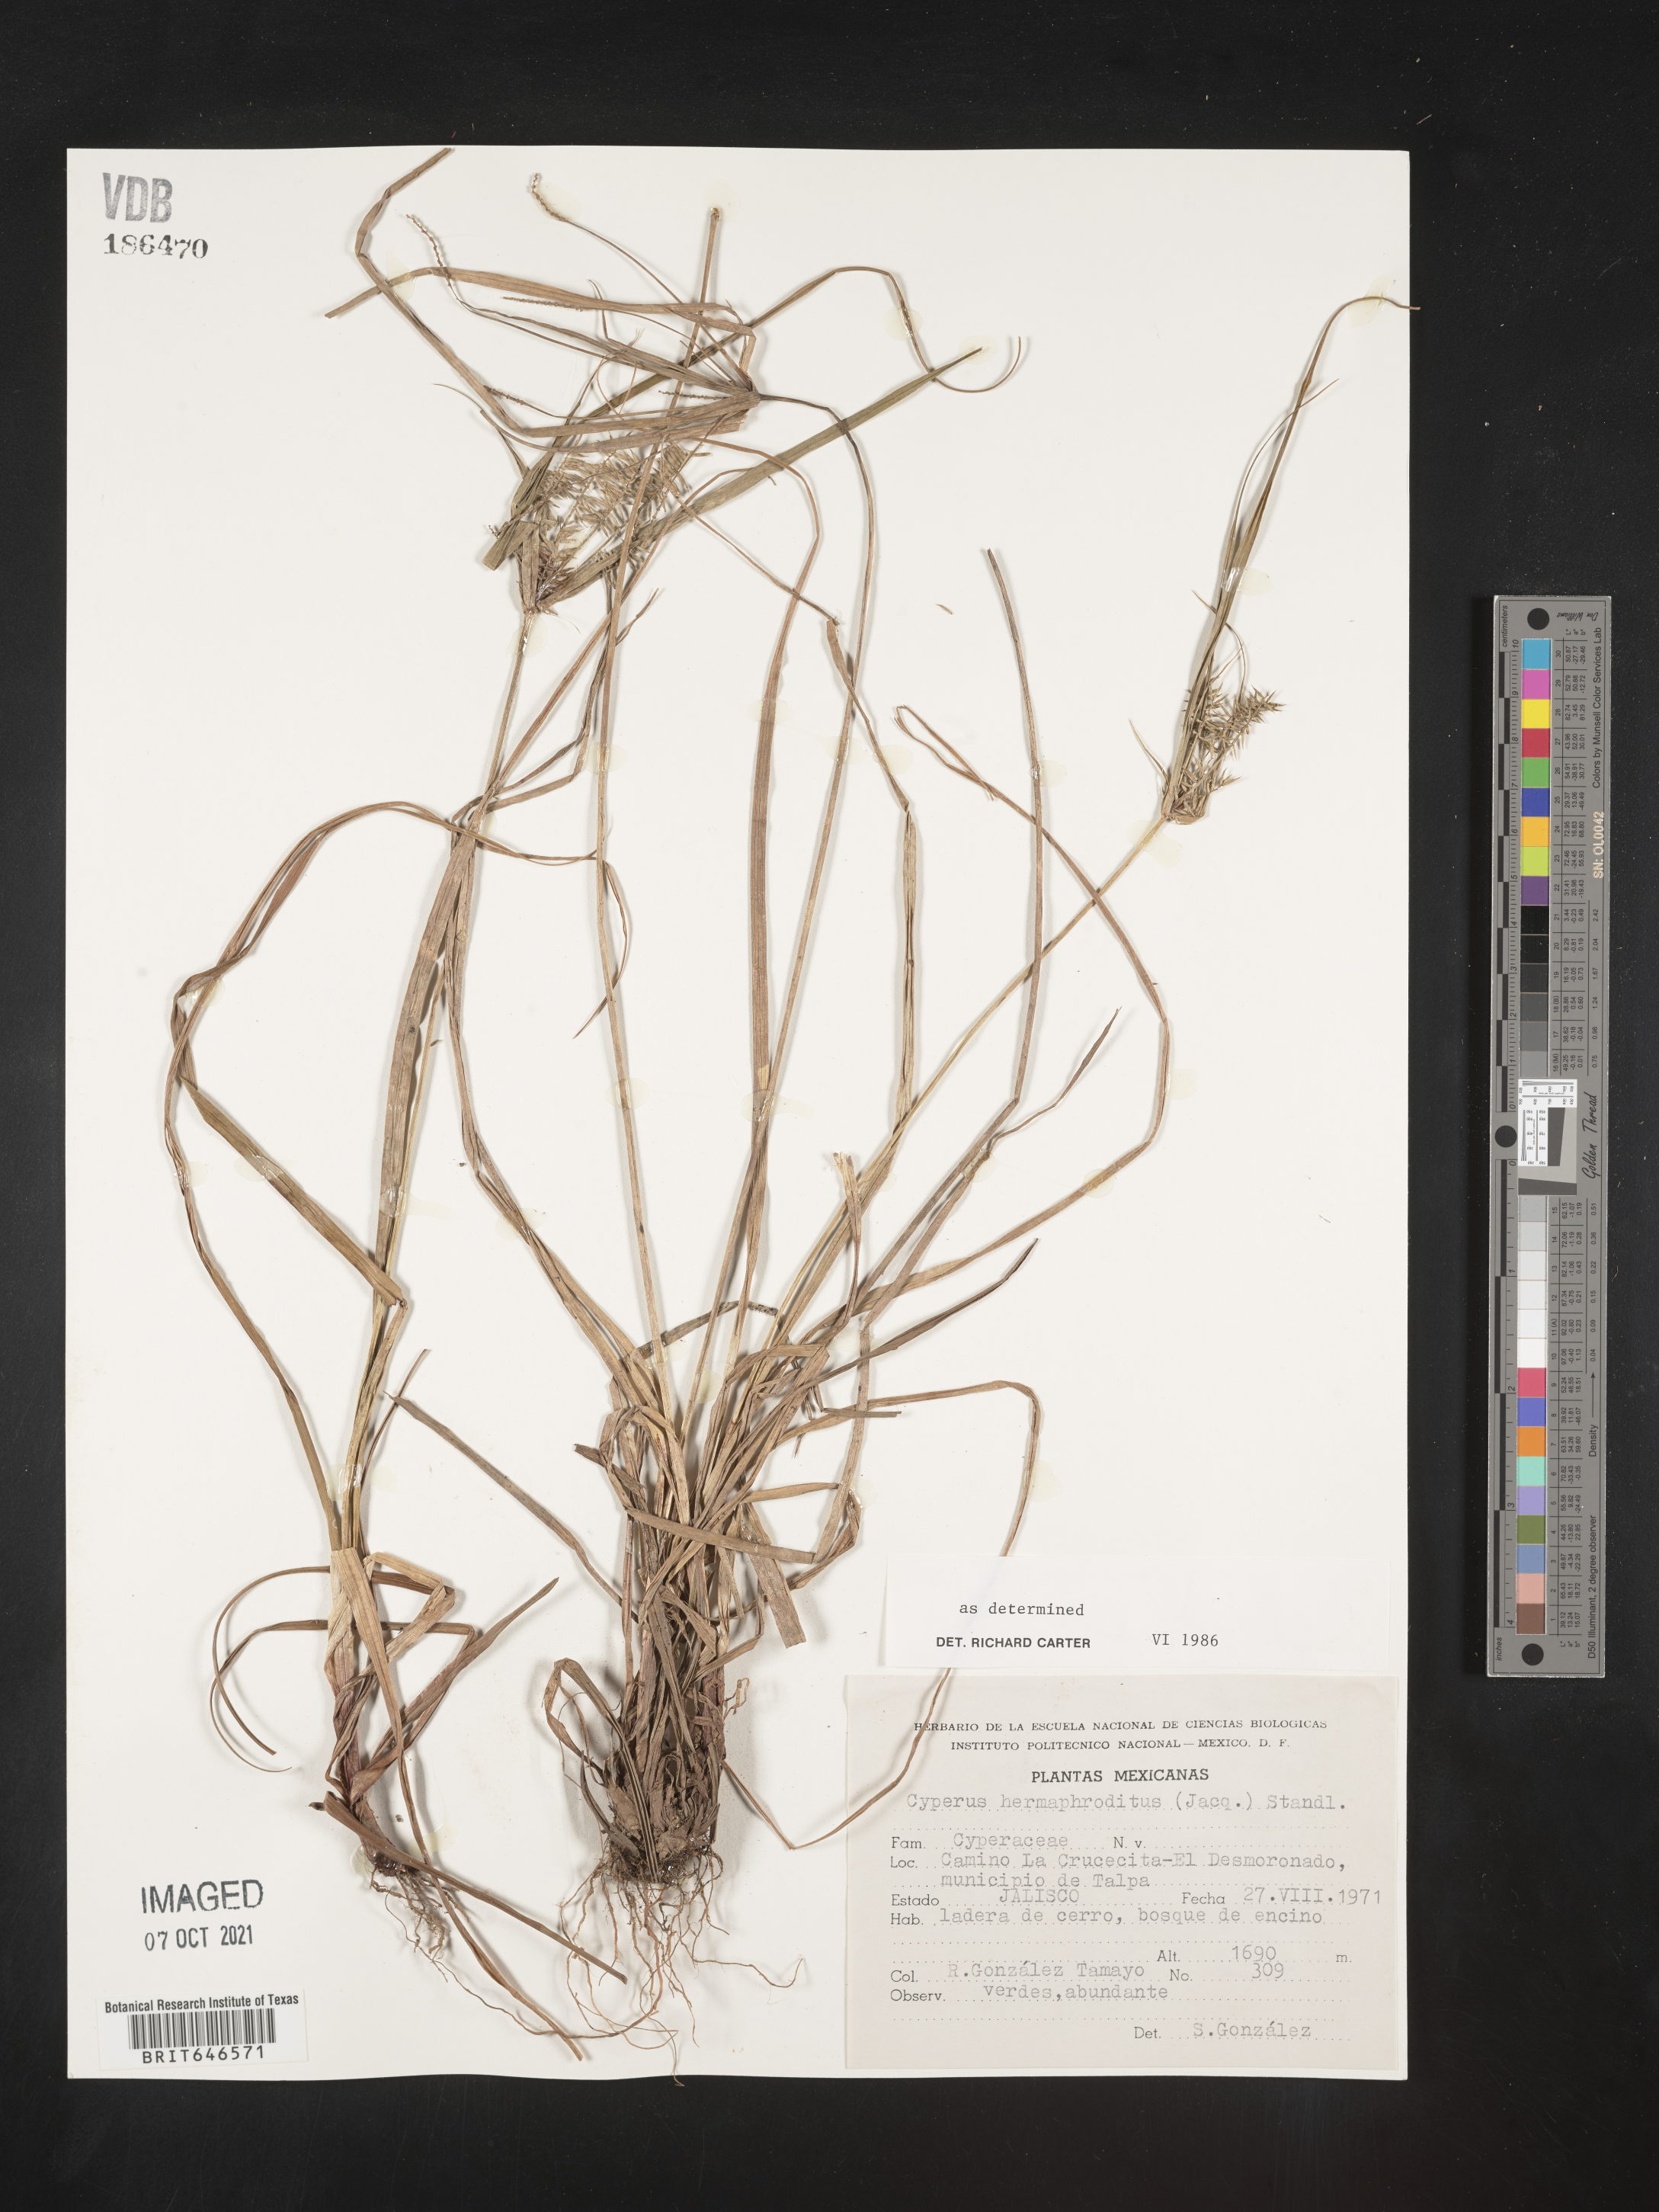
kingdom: Plantae
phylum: Tracheophyta
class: Liliopsida
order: Poales
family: Cyperaceae
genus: Cyperus
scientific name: Cyperus
